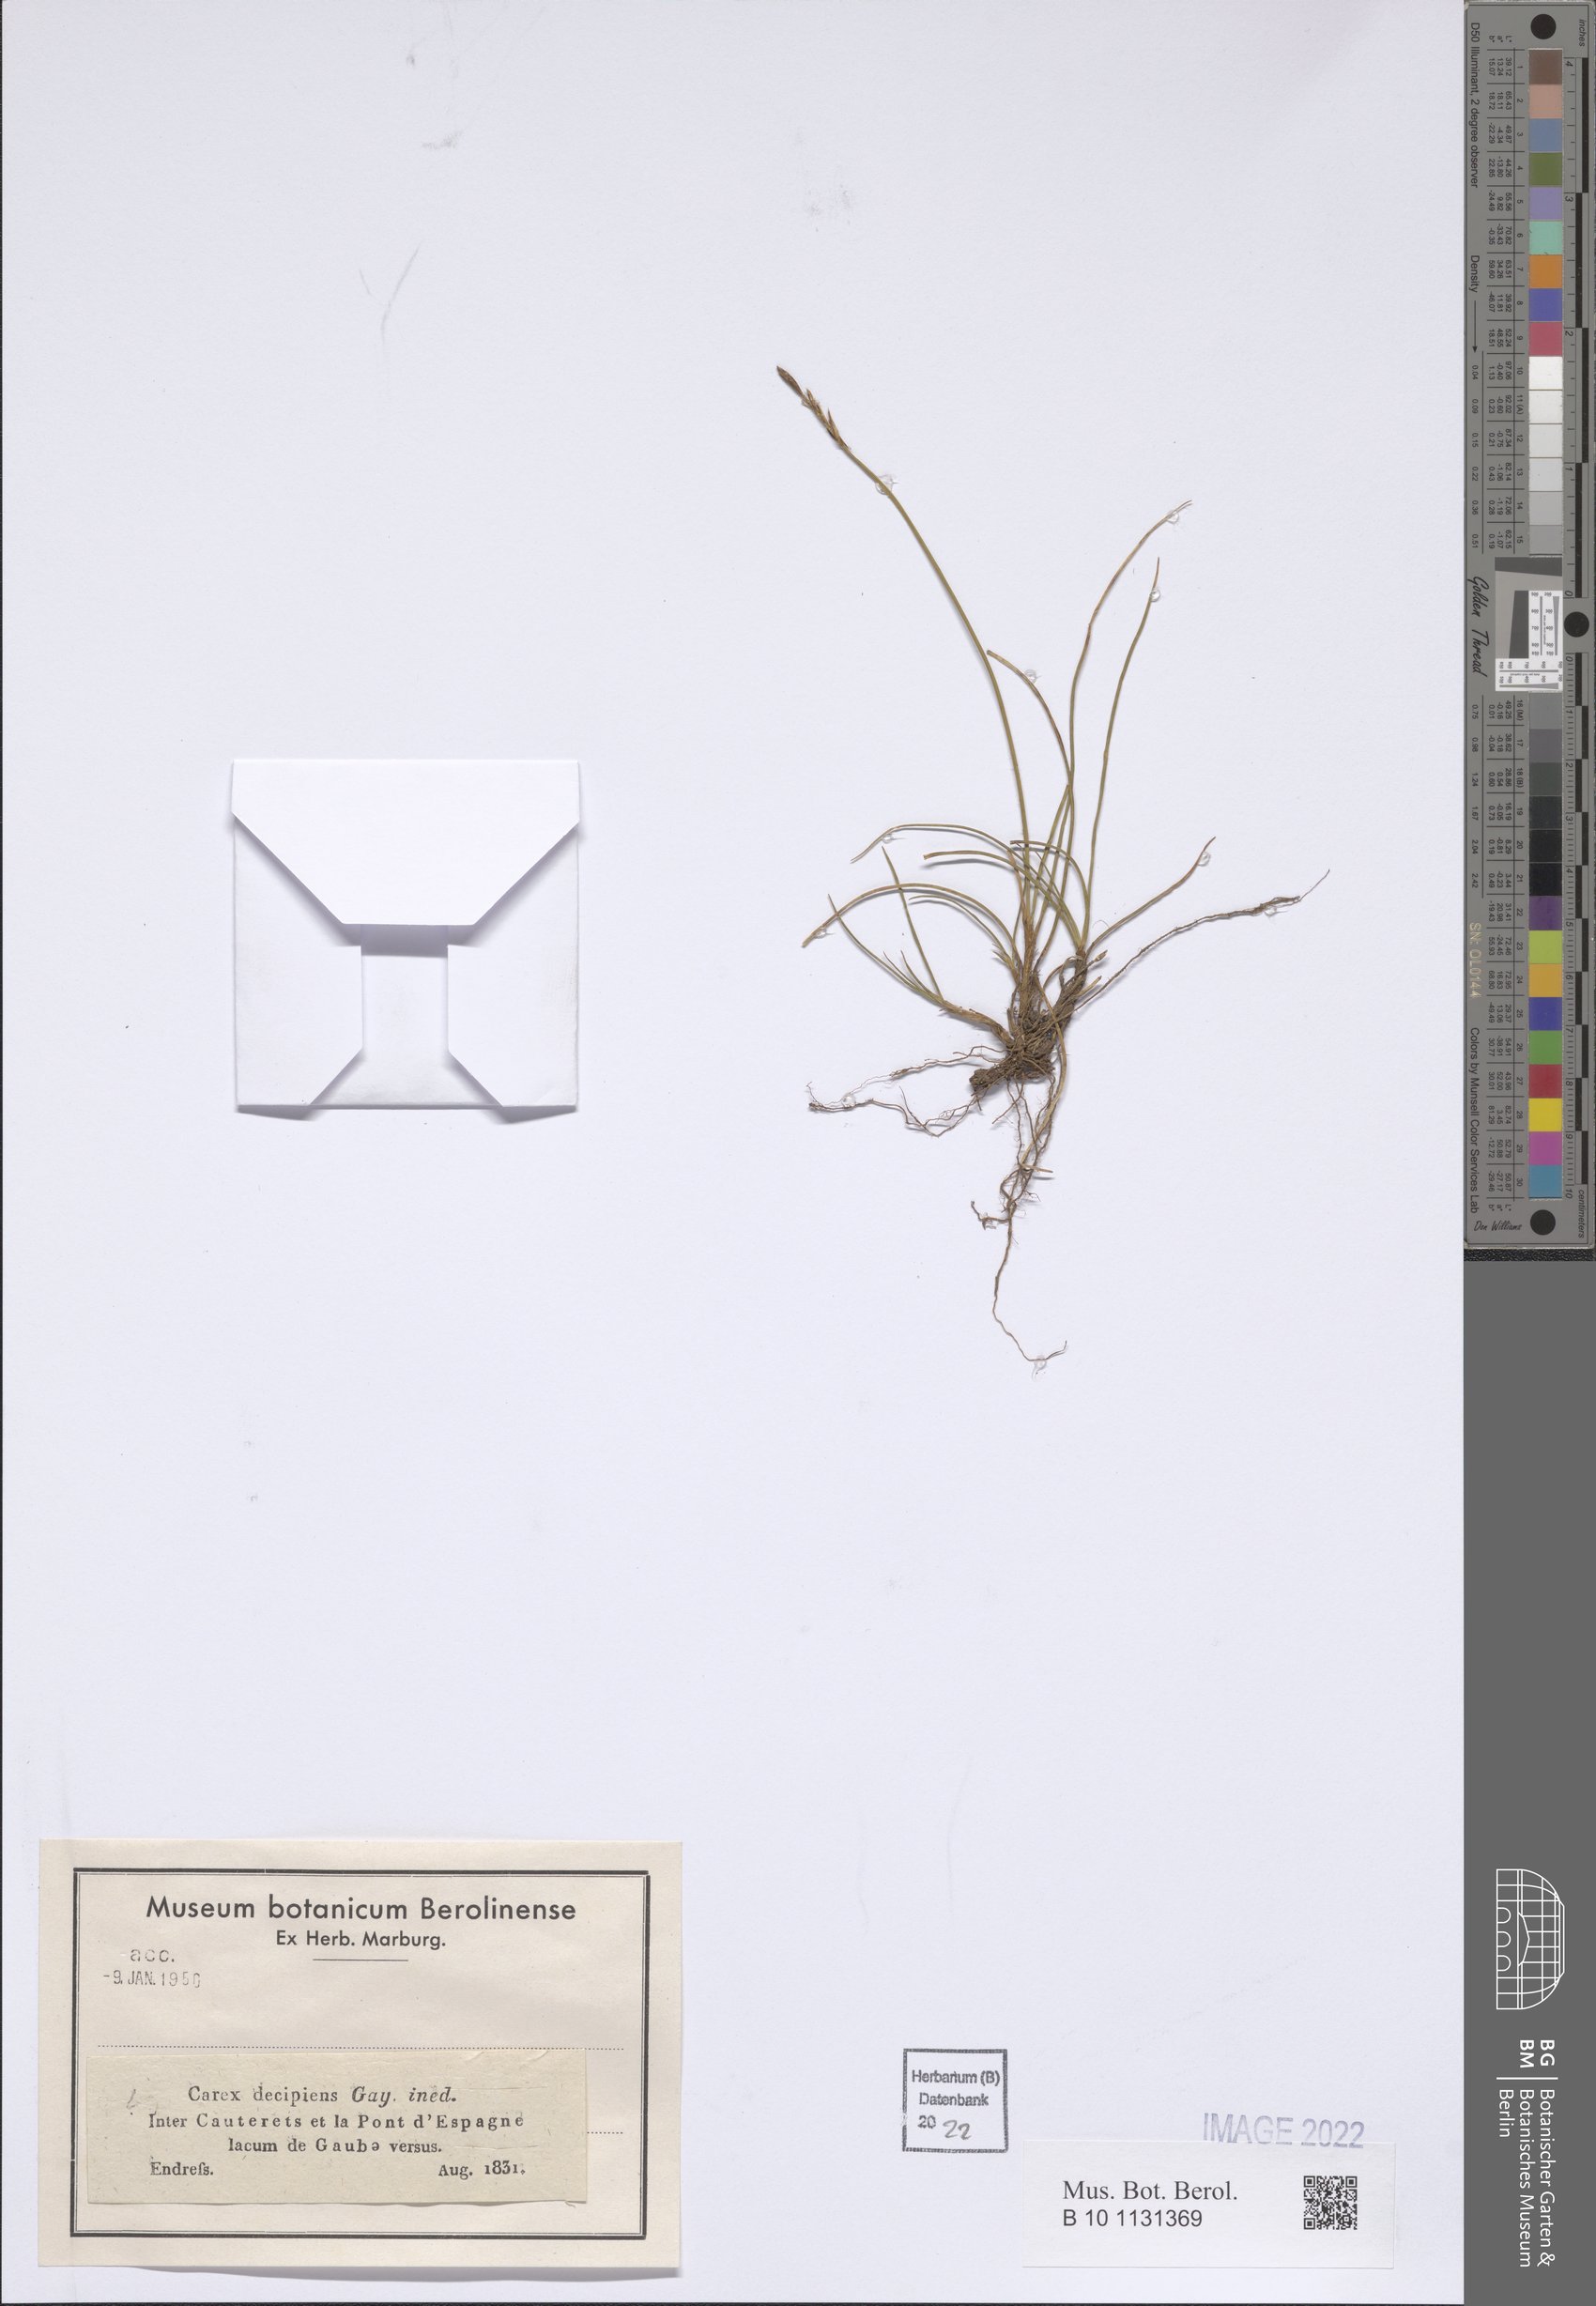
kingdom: Plantae
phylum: Tracheophyta
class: Liliopsida
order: Poales
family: Cyperaceae
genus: Carex
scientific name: Carex macrostylos
